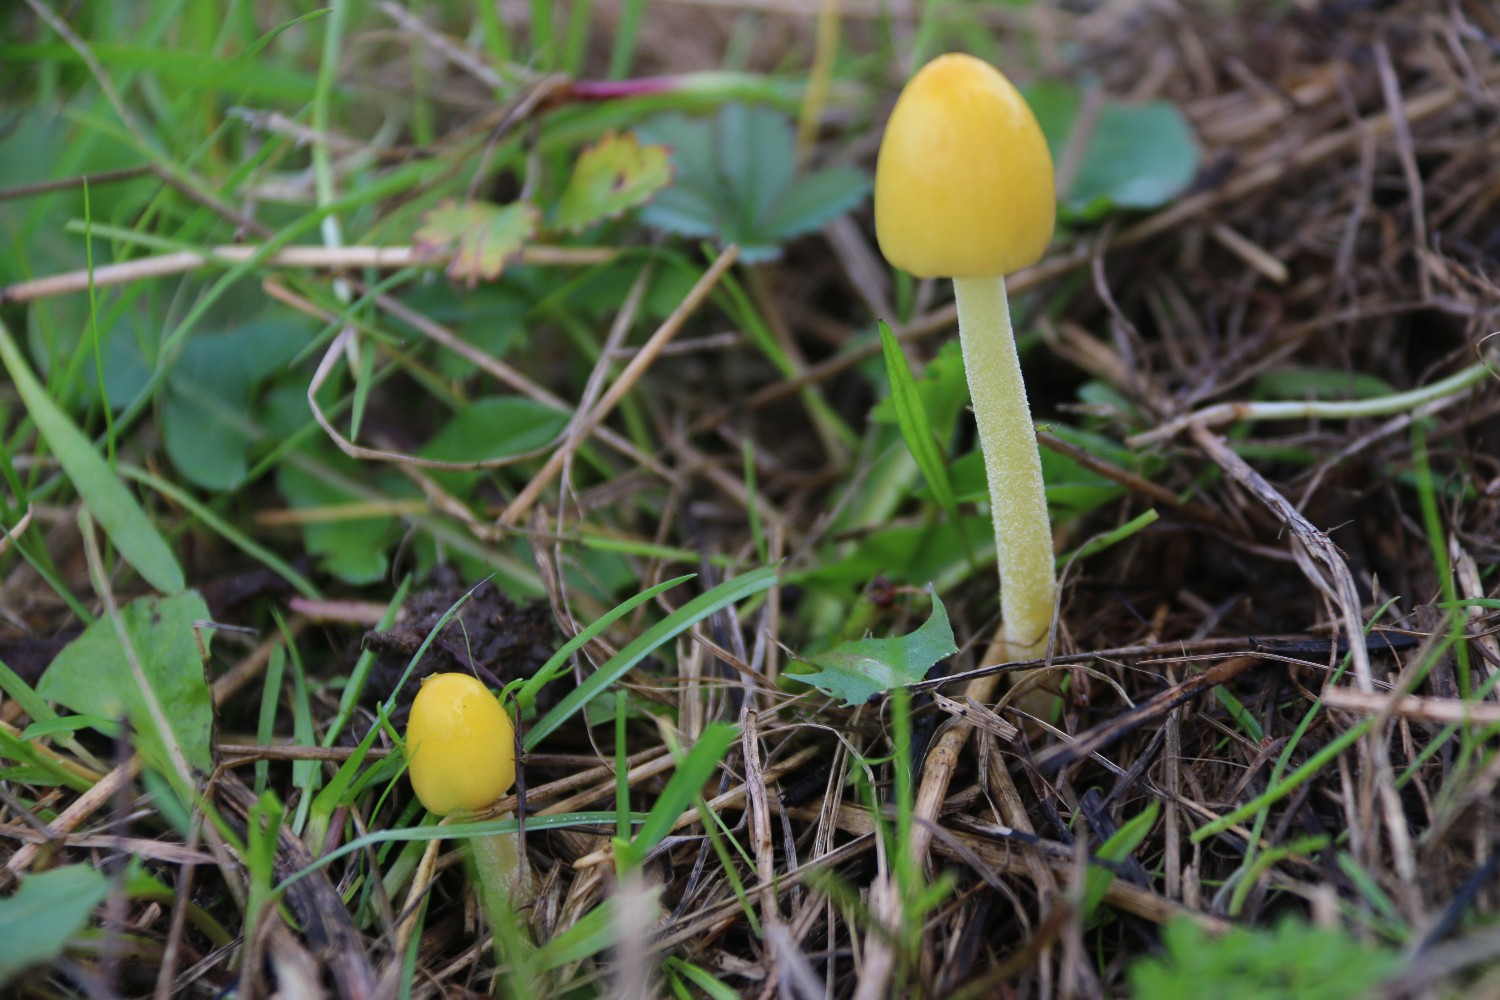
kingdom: Fungi
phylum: Basidiomycota
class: Agaricomycetes
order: Agaricales
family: Bolbitiaceae
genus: Bolbitius
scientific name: Bolbitius titubans
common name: almindelig gulhat
